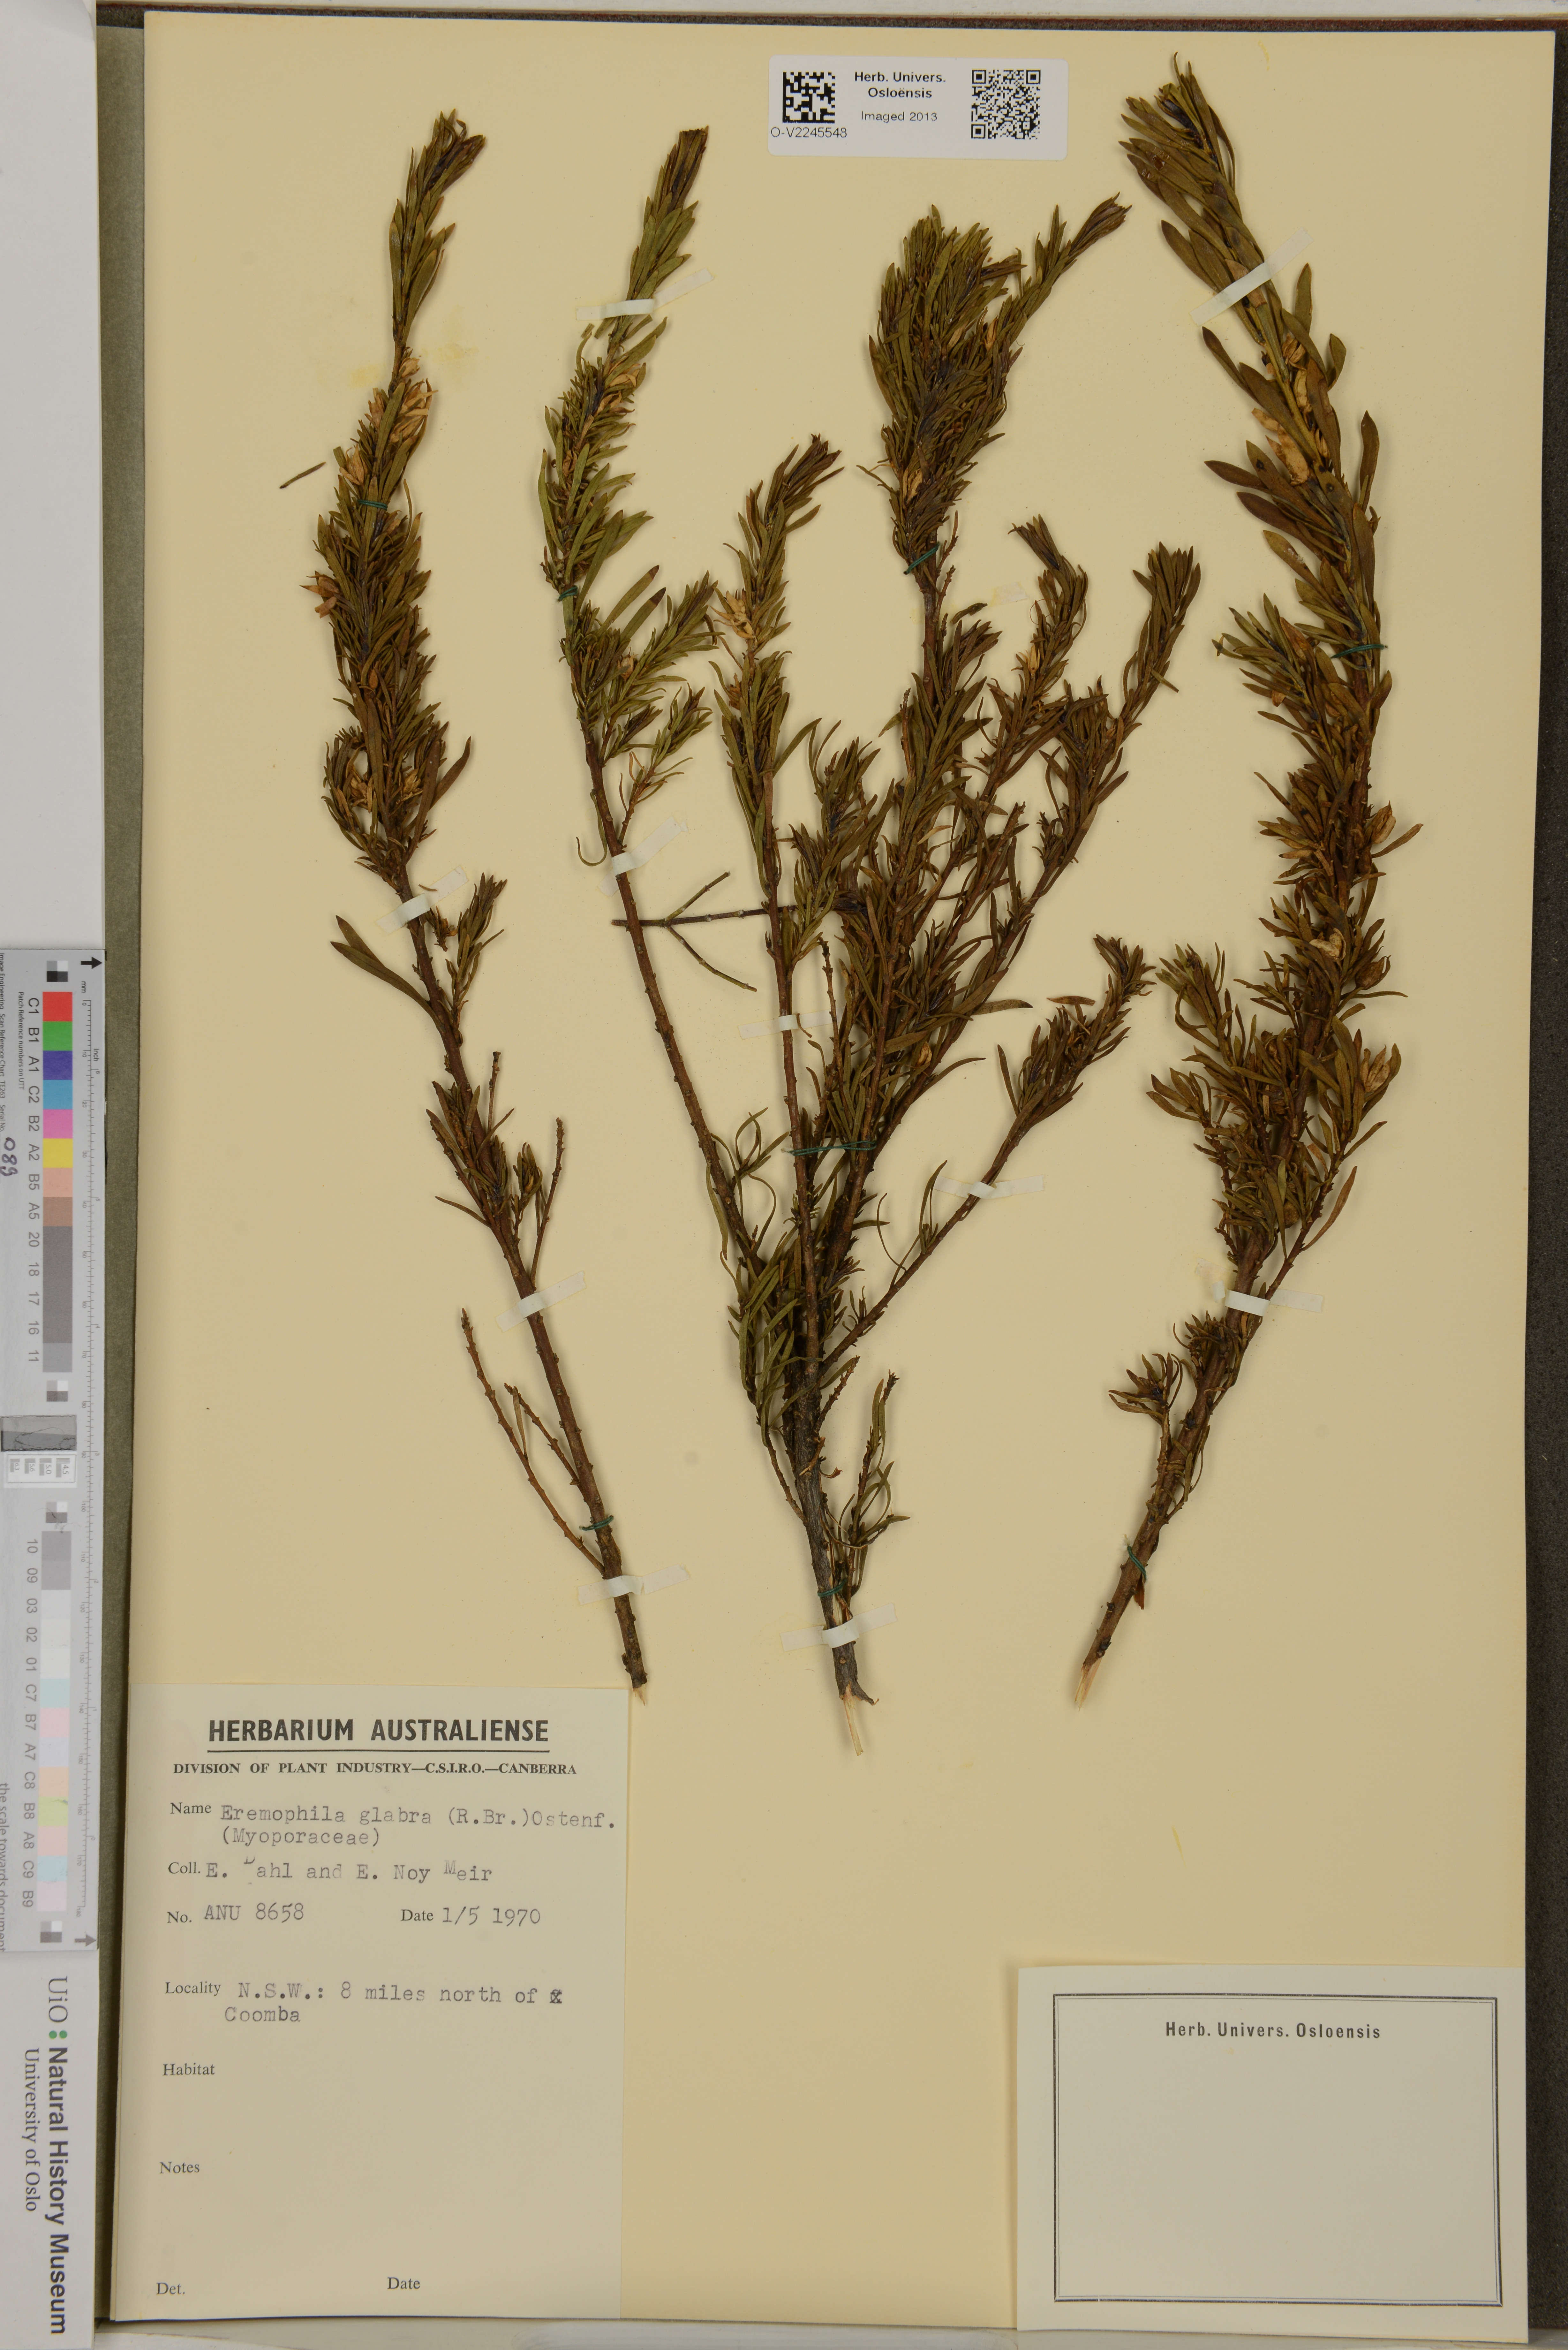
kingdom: Plantae
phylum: Tracheophyta
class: Magnoliopsida
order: Lamiales
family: Scrophulariaceae
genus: Eremophila
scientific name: Eremophila glabra
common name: Black-fuchsia
